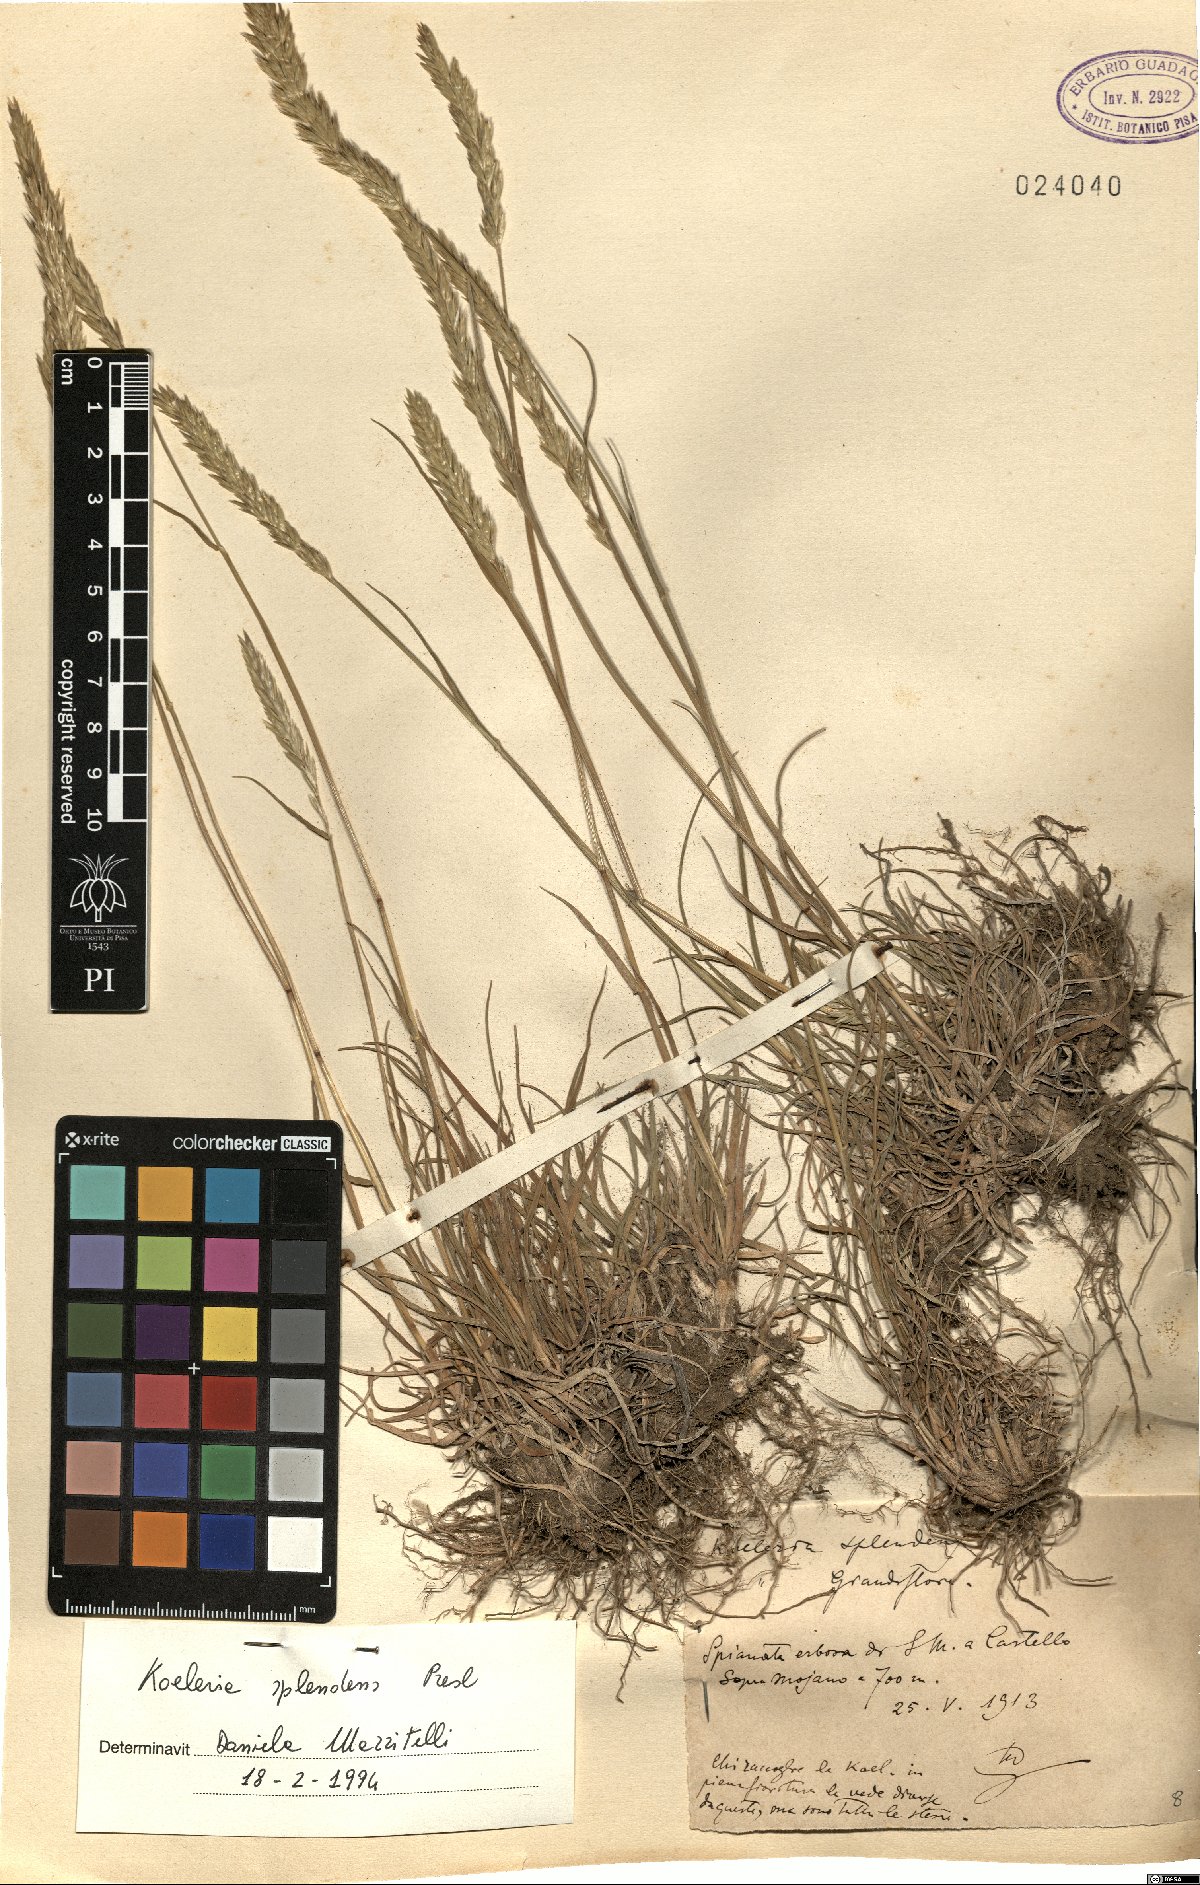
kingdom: Plantae
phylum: Tracheophyta
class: Liliopsida
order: Poales
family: Poaceae
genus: Koeleria
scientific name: Koeleria splendens
